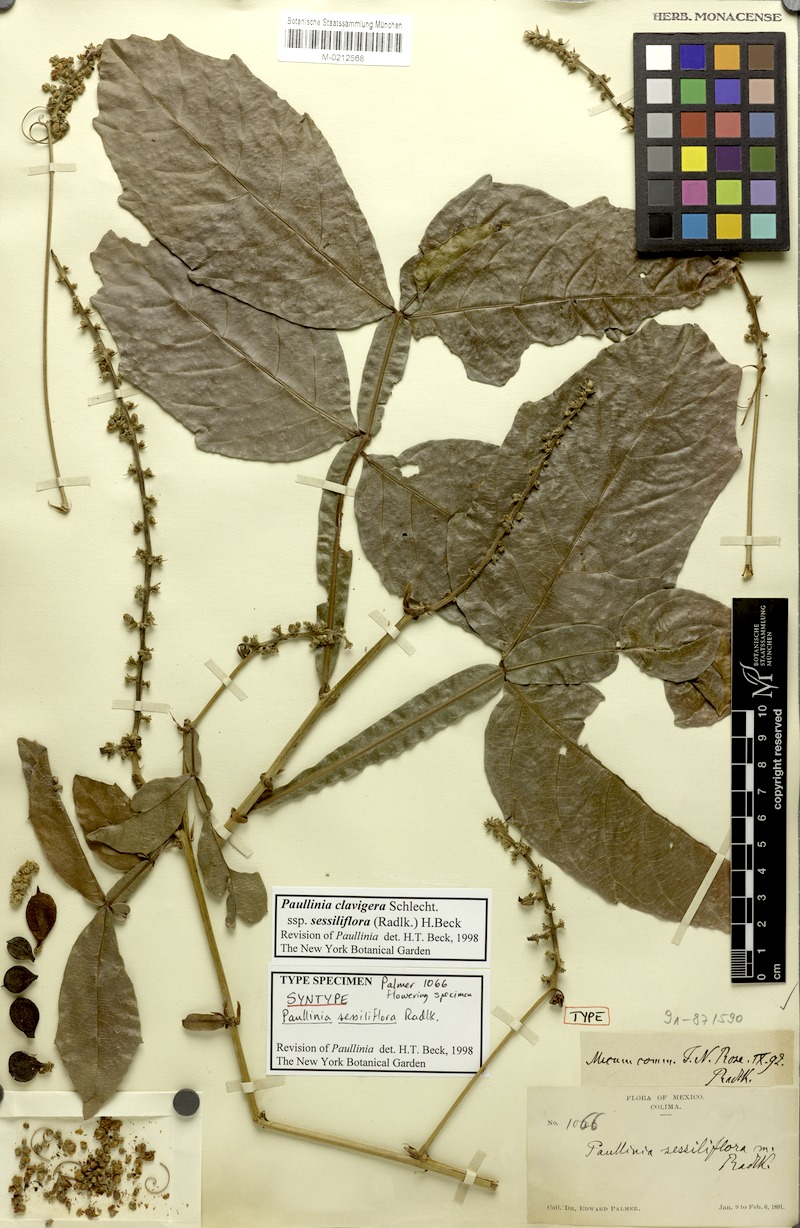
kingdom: Plantae
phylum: Tracheophyta
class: Magnoliopsida
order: Sapindales
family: Sapindaceae
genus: Paullinia
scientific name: Paullinia clavigera
